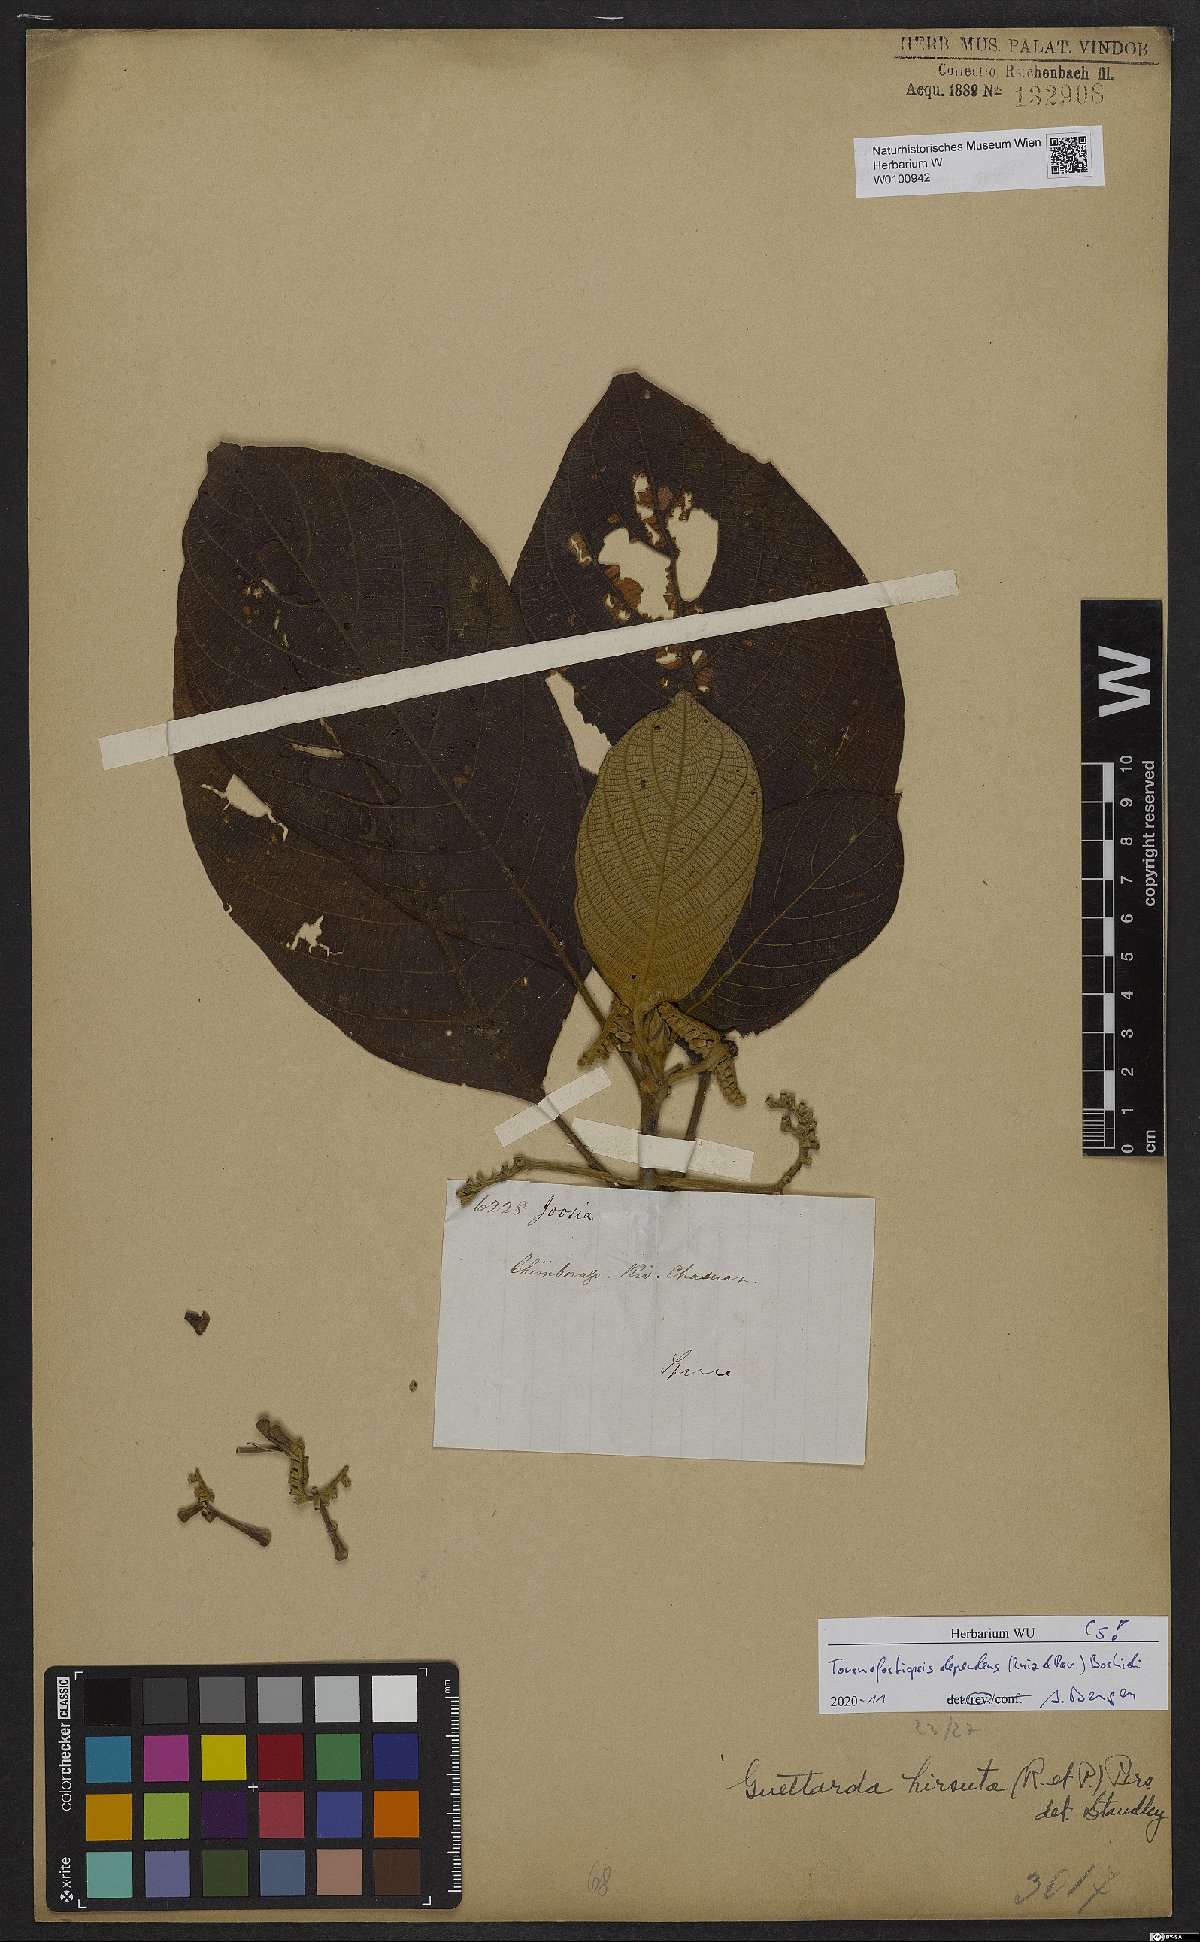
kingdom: Plantae
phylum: Tracheophyta
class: Magnoliopsida
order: Gentianales
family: Rubiaceae
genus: Tournefortiopsis
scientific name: Tournefortiopsis dependens
